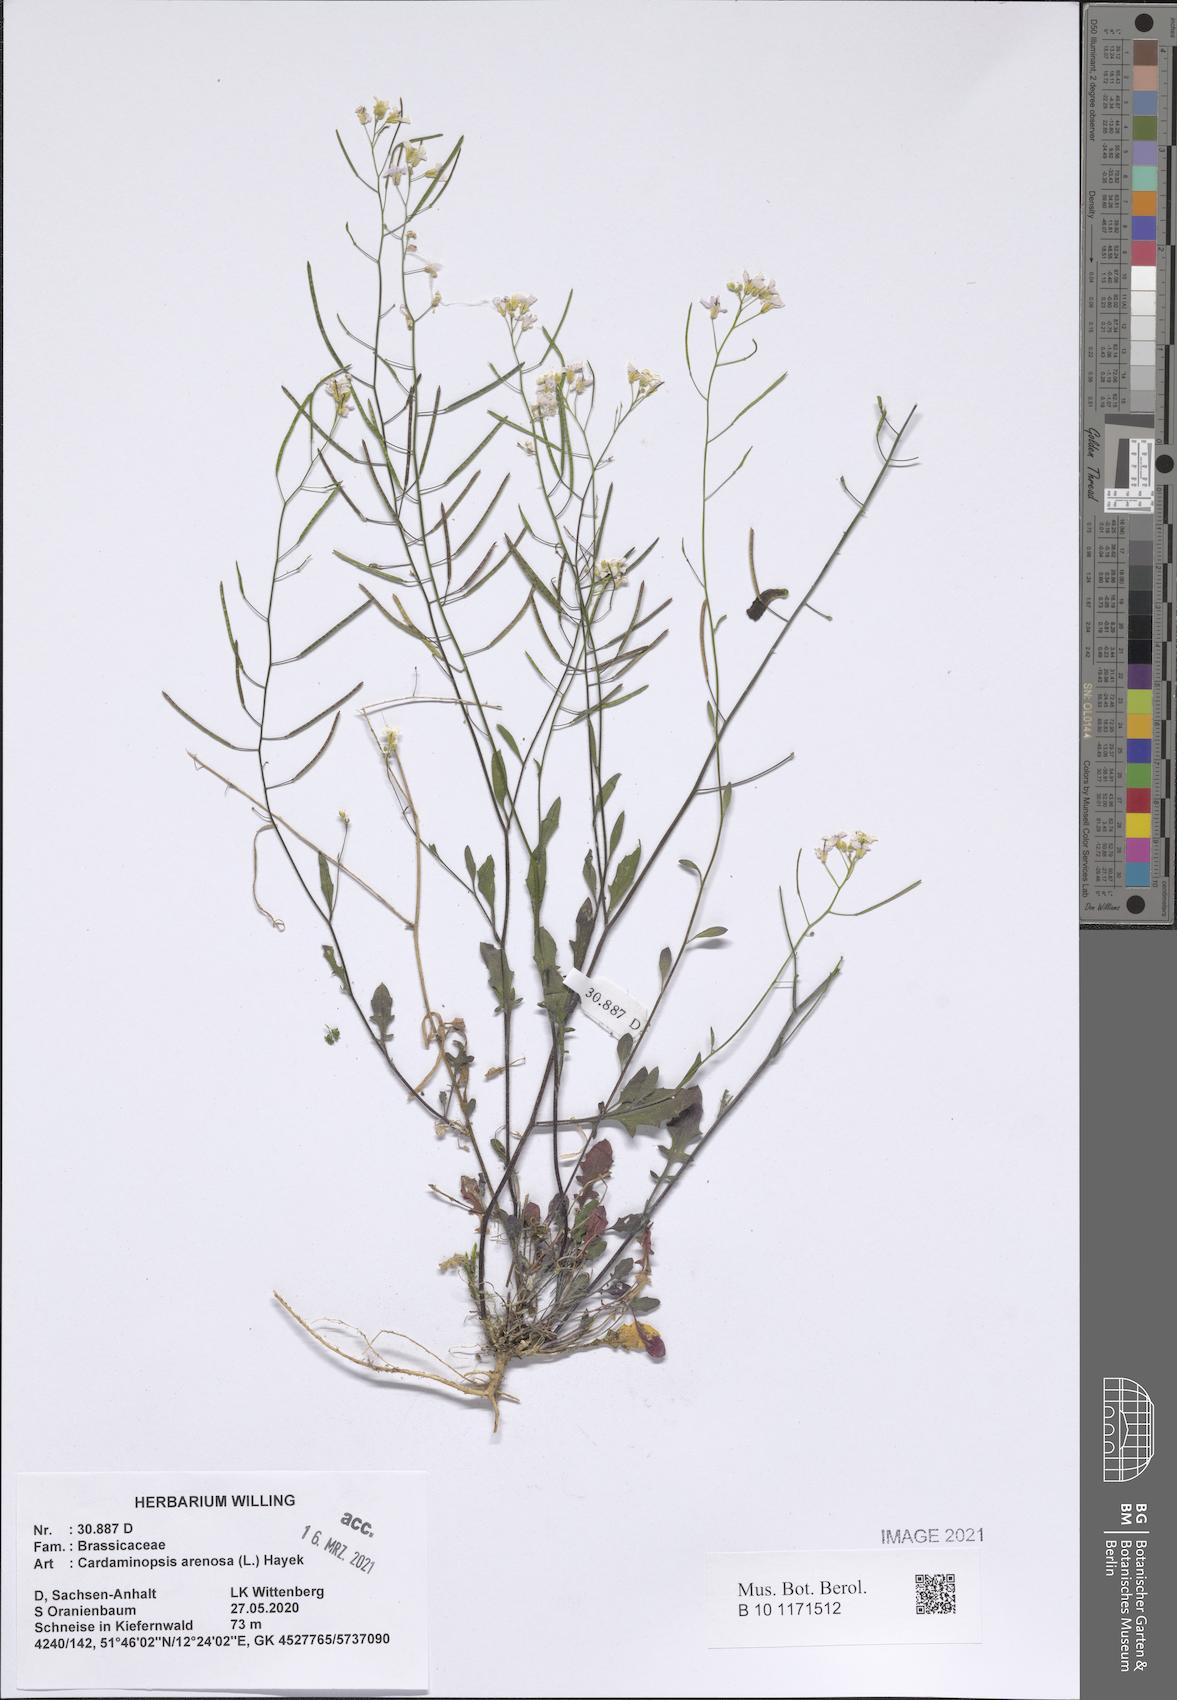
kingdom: Plantae
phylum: Tracheophyta
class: Magnoliopsida
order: Brassicales
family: Brassicaceae
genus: Arabidopsis
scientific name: Arabidopsis arenosa
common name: Sand rock-cress
